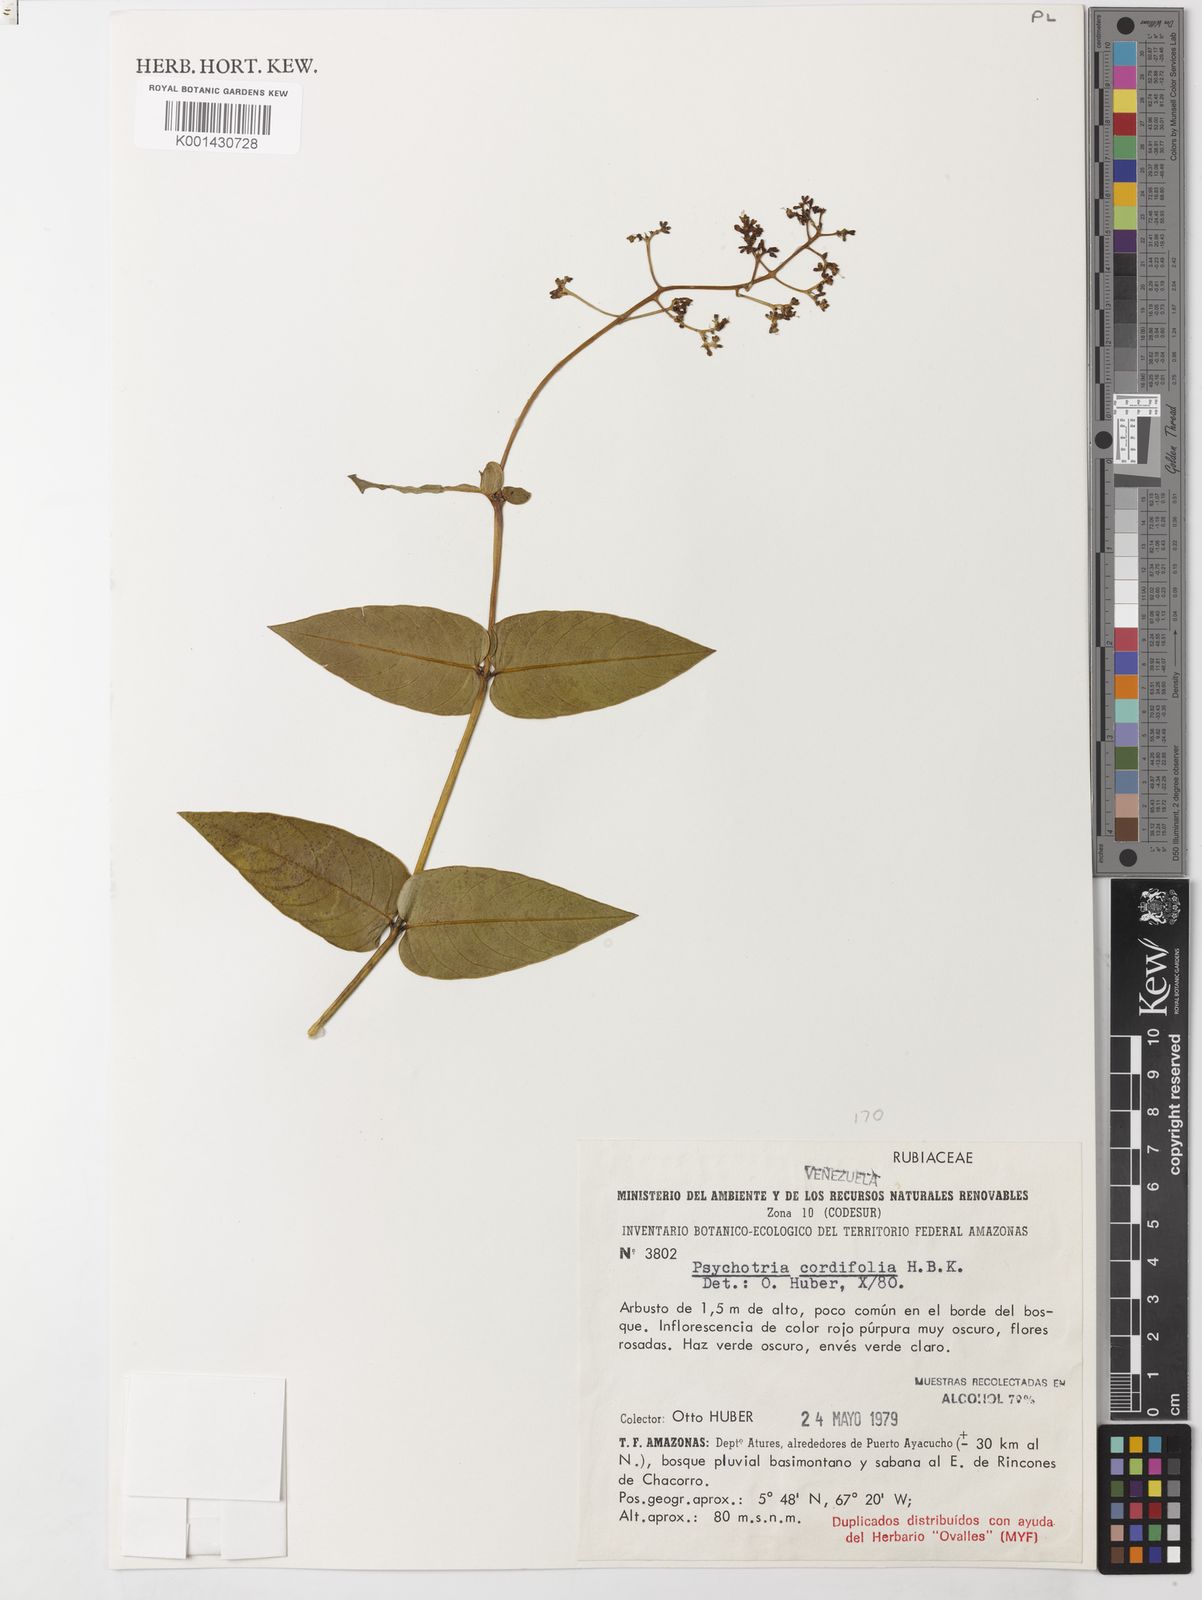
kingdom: Plantae
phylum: Tracheophyta
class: Magnoliopsida
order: Gentianales
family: Rubiaceae
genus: Palicourea
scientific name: Palicourea cardiomorpha
